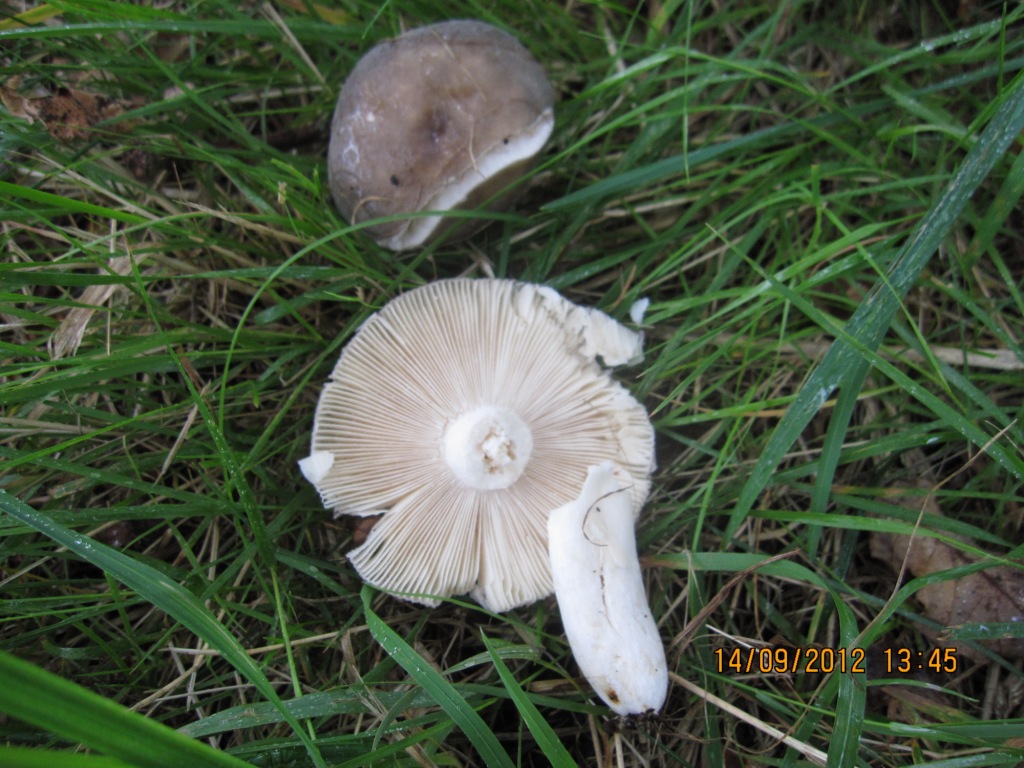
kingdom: Fungi
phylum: Basidiomycota
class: Agaricomycetes
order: Russulales
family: Russulaceae
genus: Russula
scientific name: Russula parazurea
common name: blågrå skørhat
